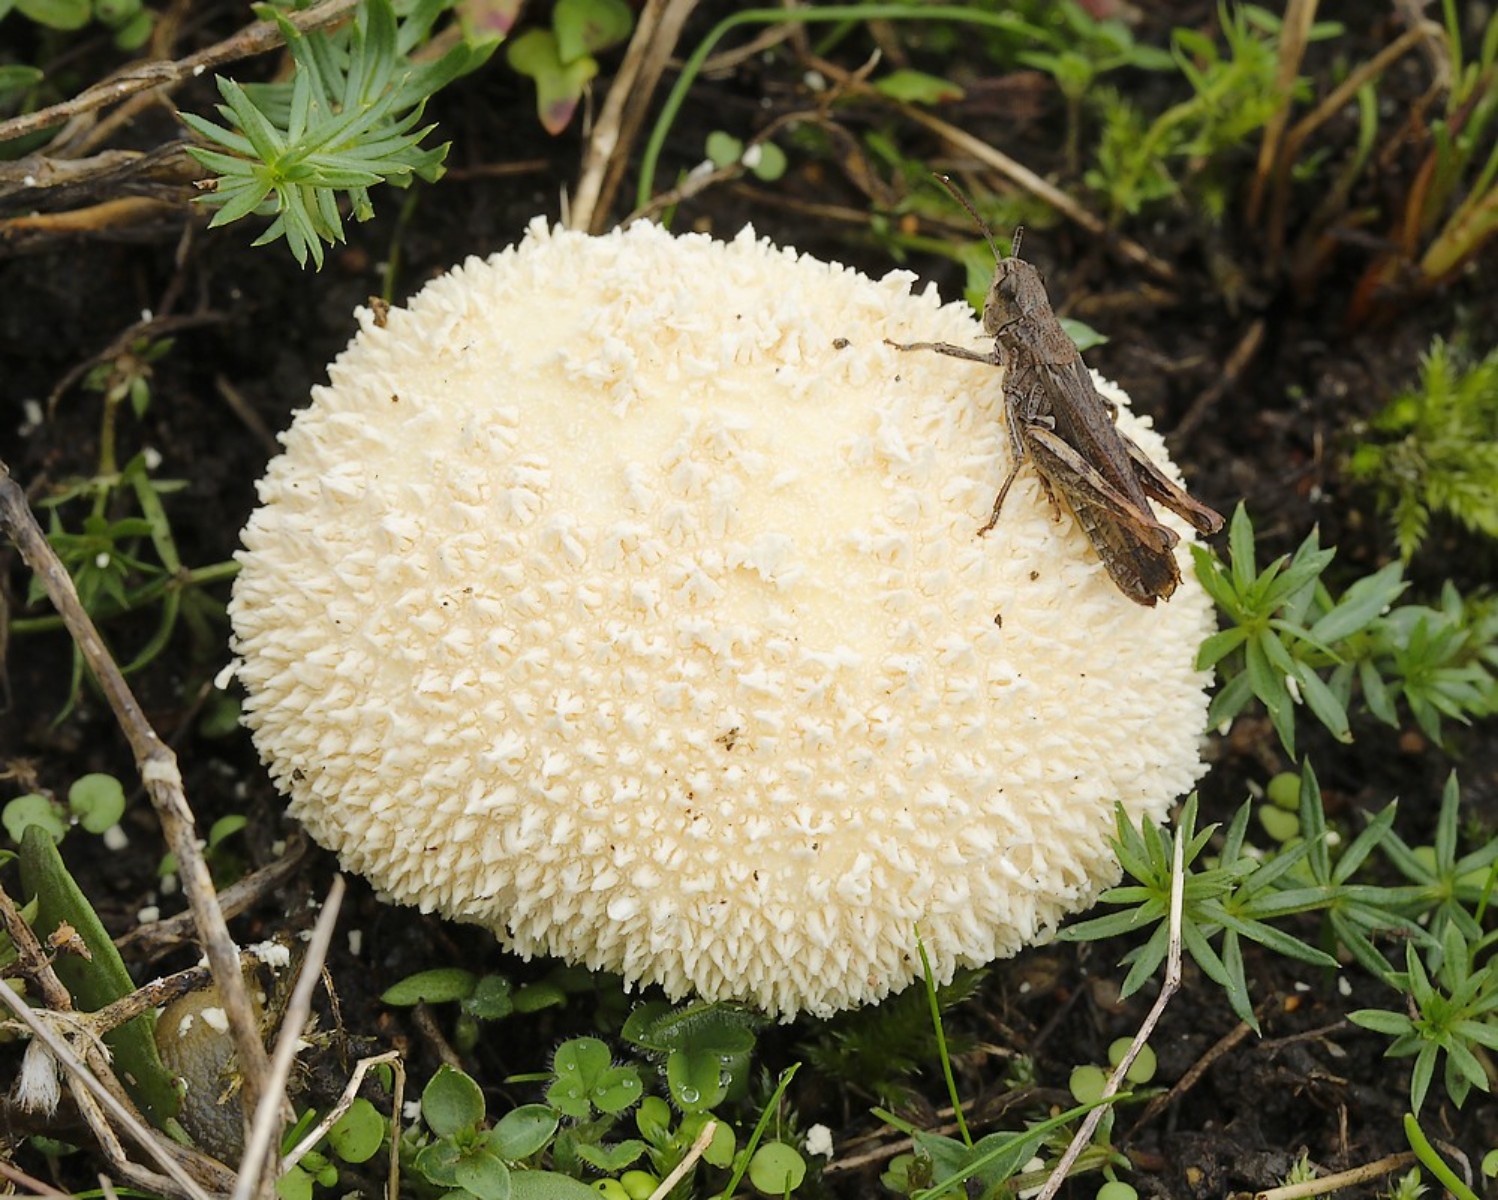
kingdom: Fungi
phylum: Basidiomycota
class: Agaricomycetes
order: Agaricales
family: Lycoperdaceae
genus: Lycoperdon
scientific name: Lycoperdon pratense
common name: flad støvbold
